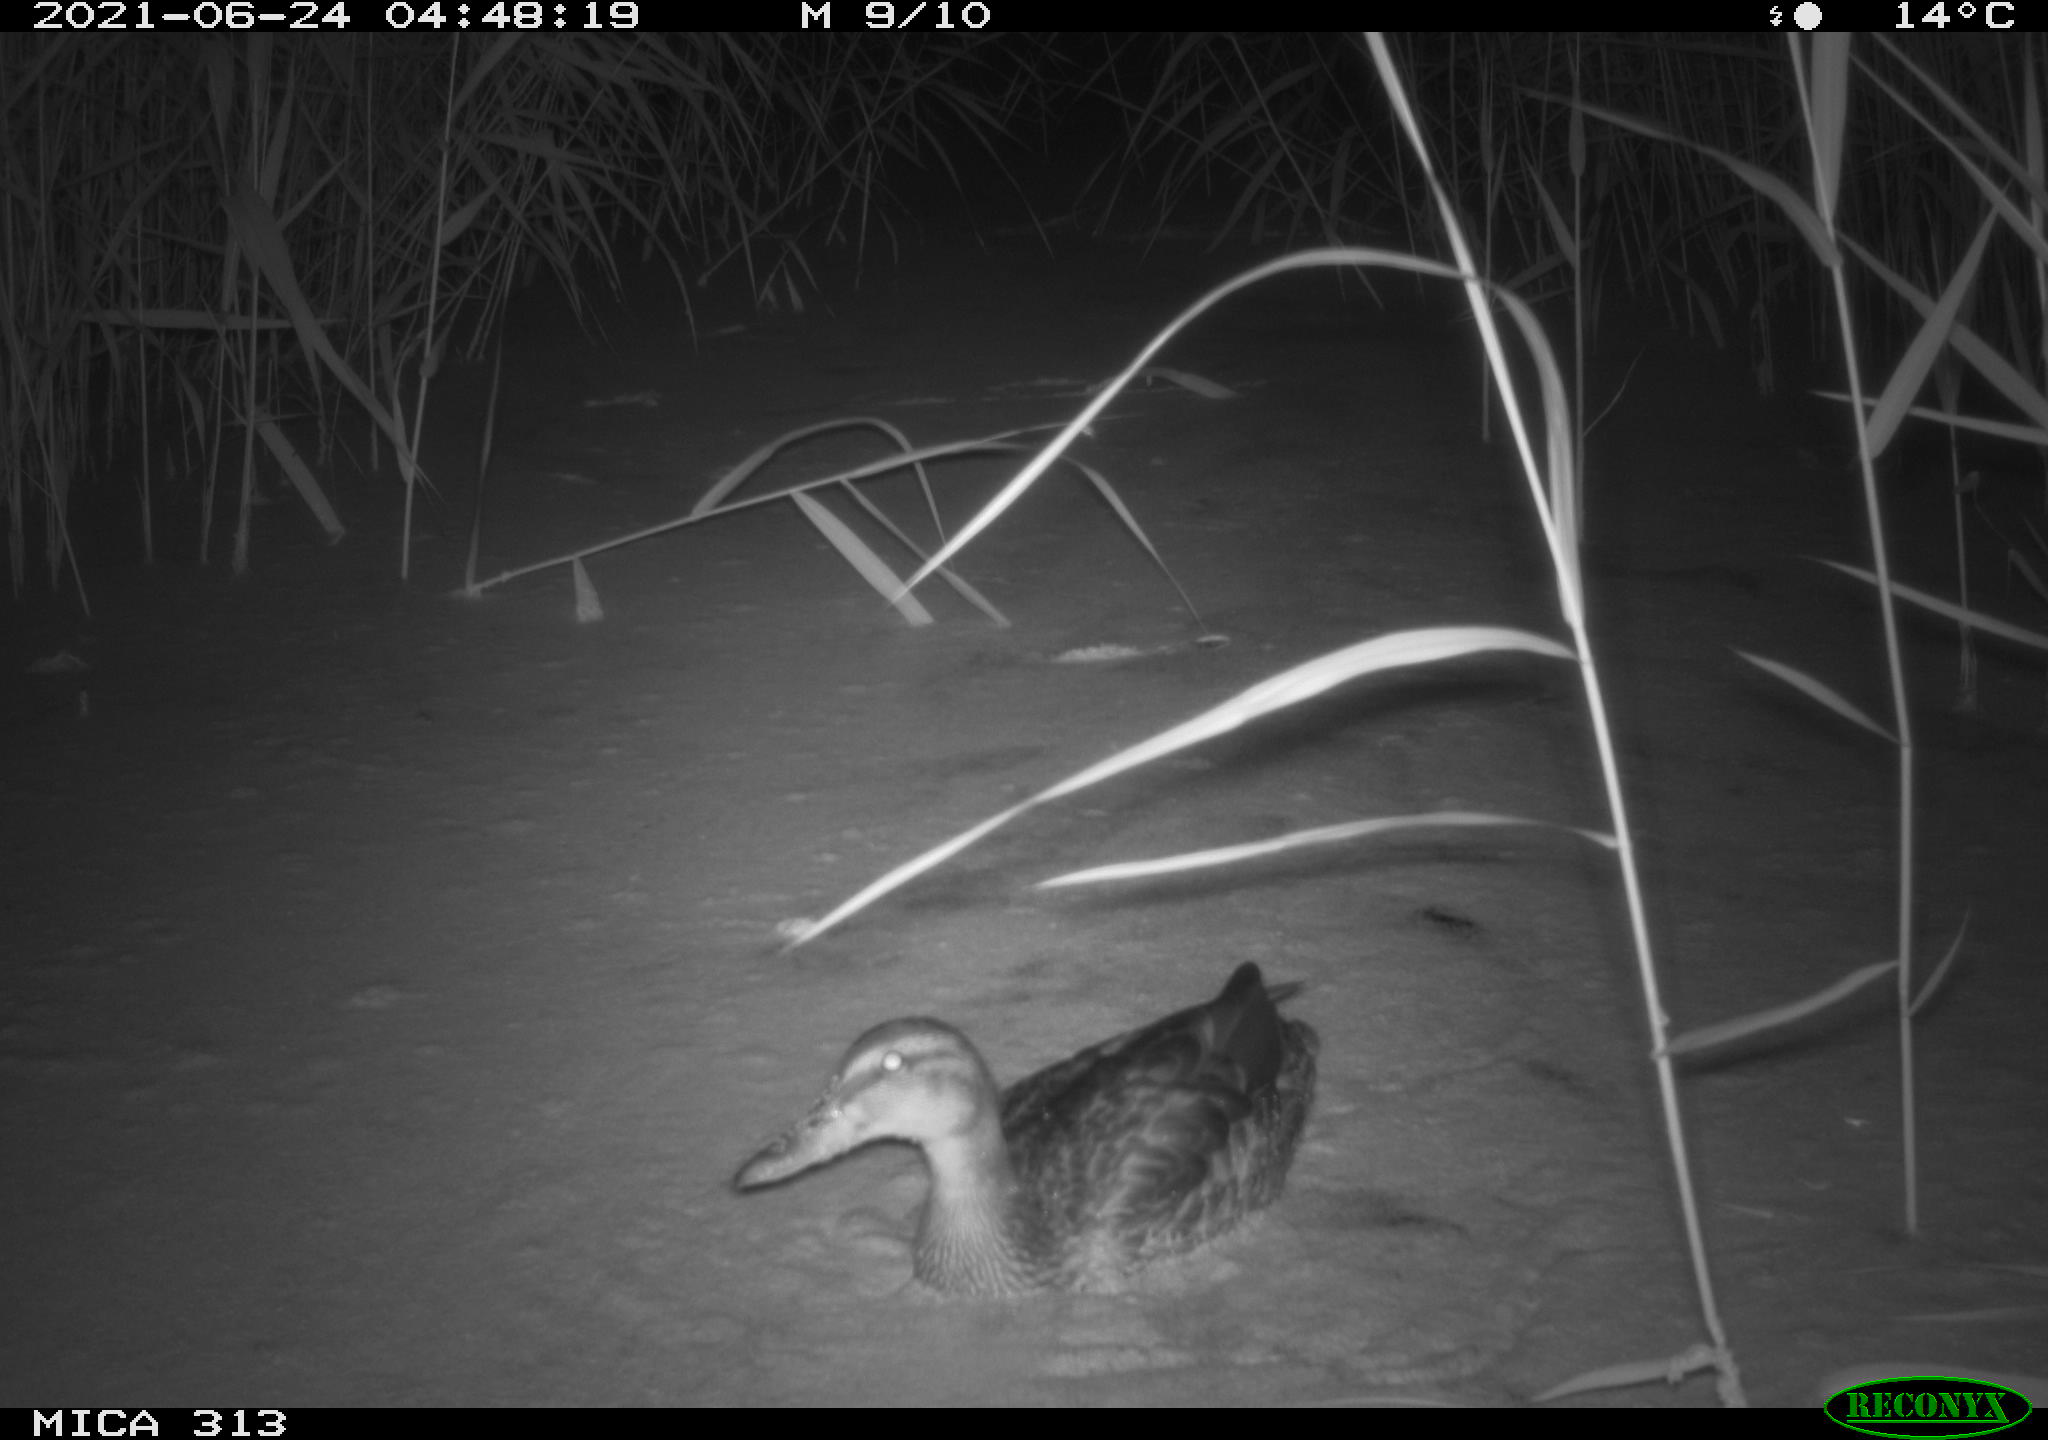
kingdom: Animalia
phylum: Chordata
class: Aves
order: Gruiformes
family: Rallidae
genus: Fulica
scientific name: Fulica atra
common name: Eurasian coot
